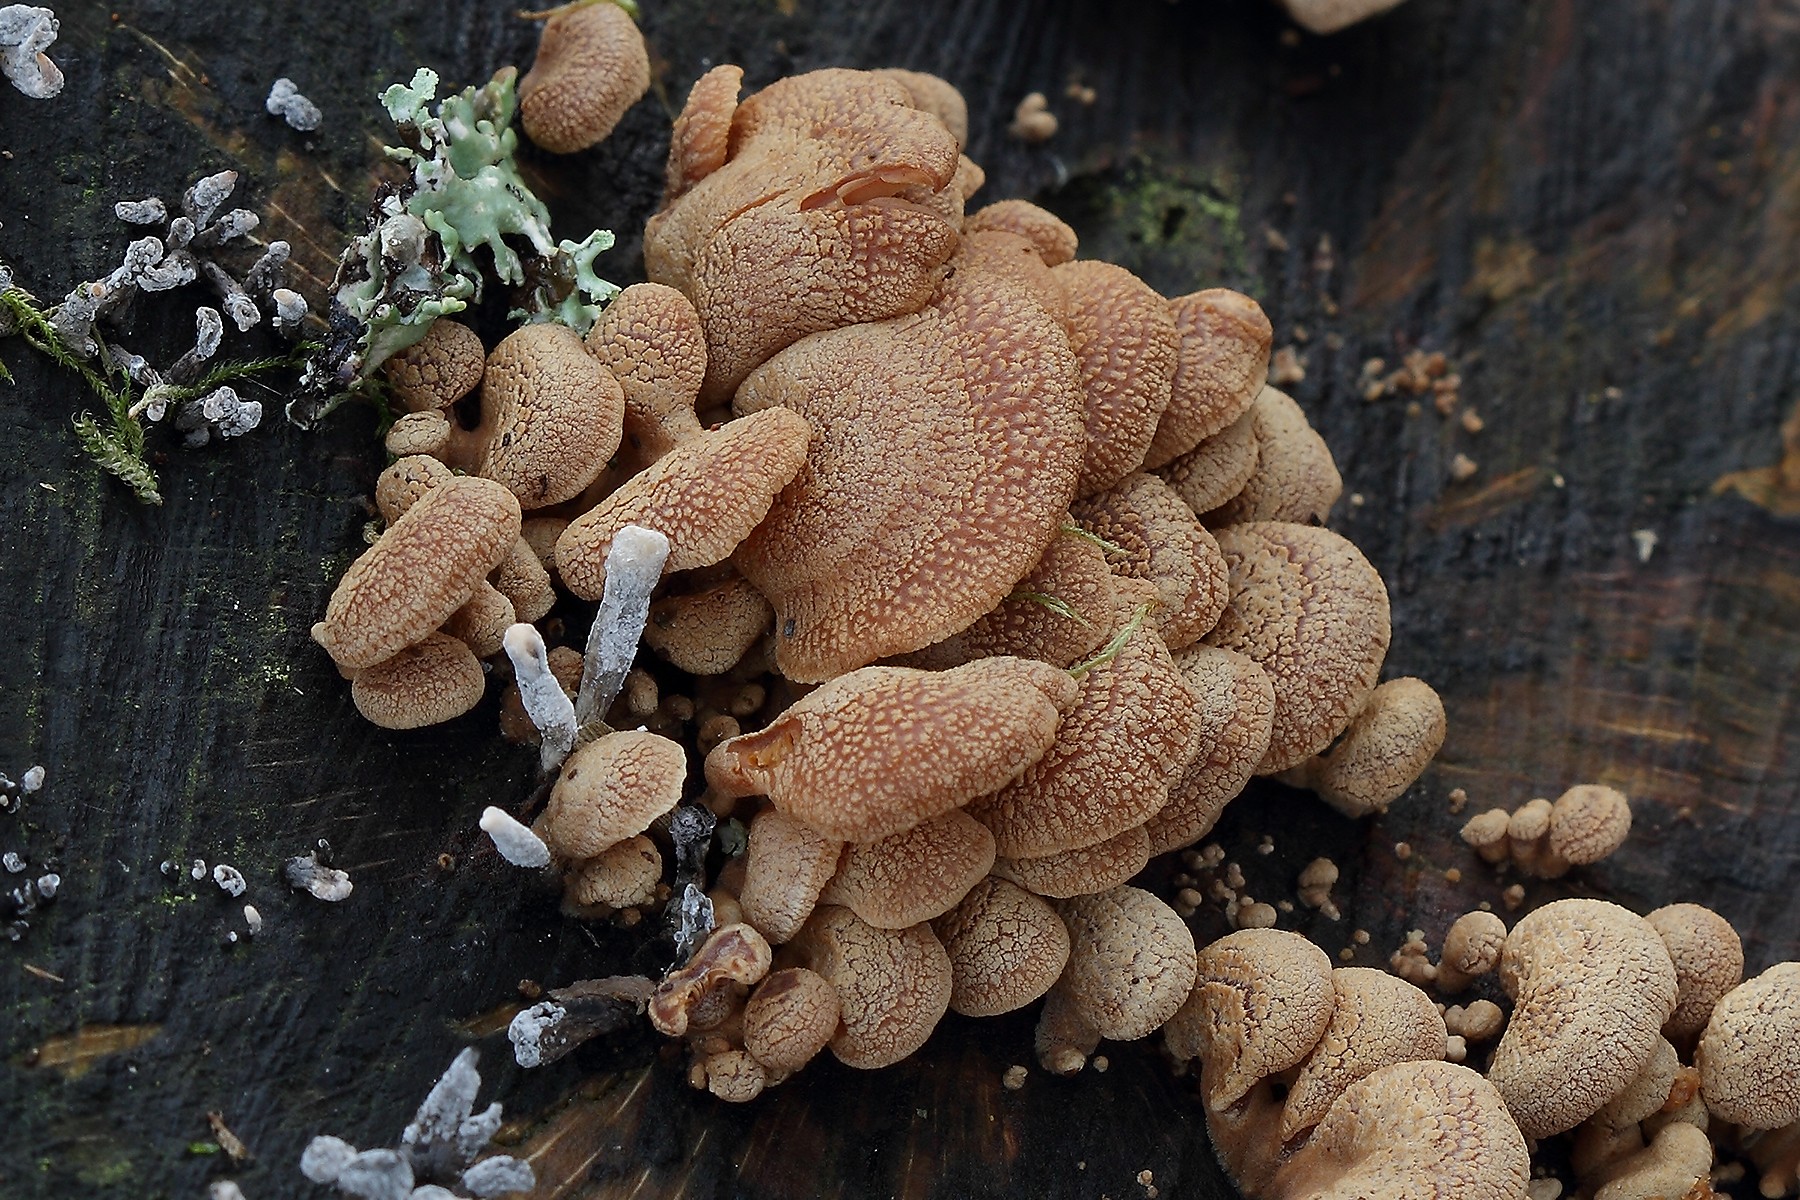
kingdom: Fungi
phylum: Basidiomycota
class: Agaricomycetes
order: Agaricales
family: Mycenaceae
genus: Panellus
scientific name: Panellus stipticus
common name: kliddet epaulethat
